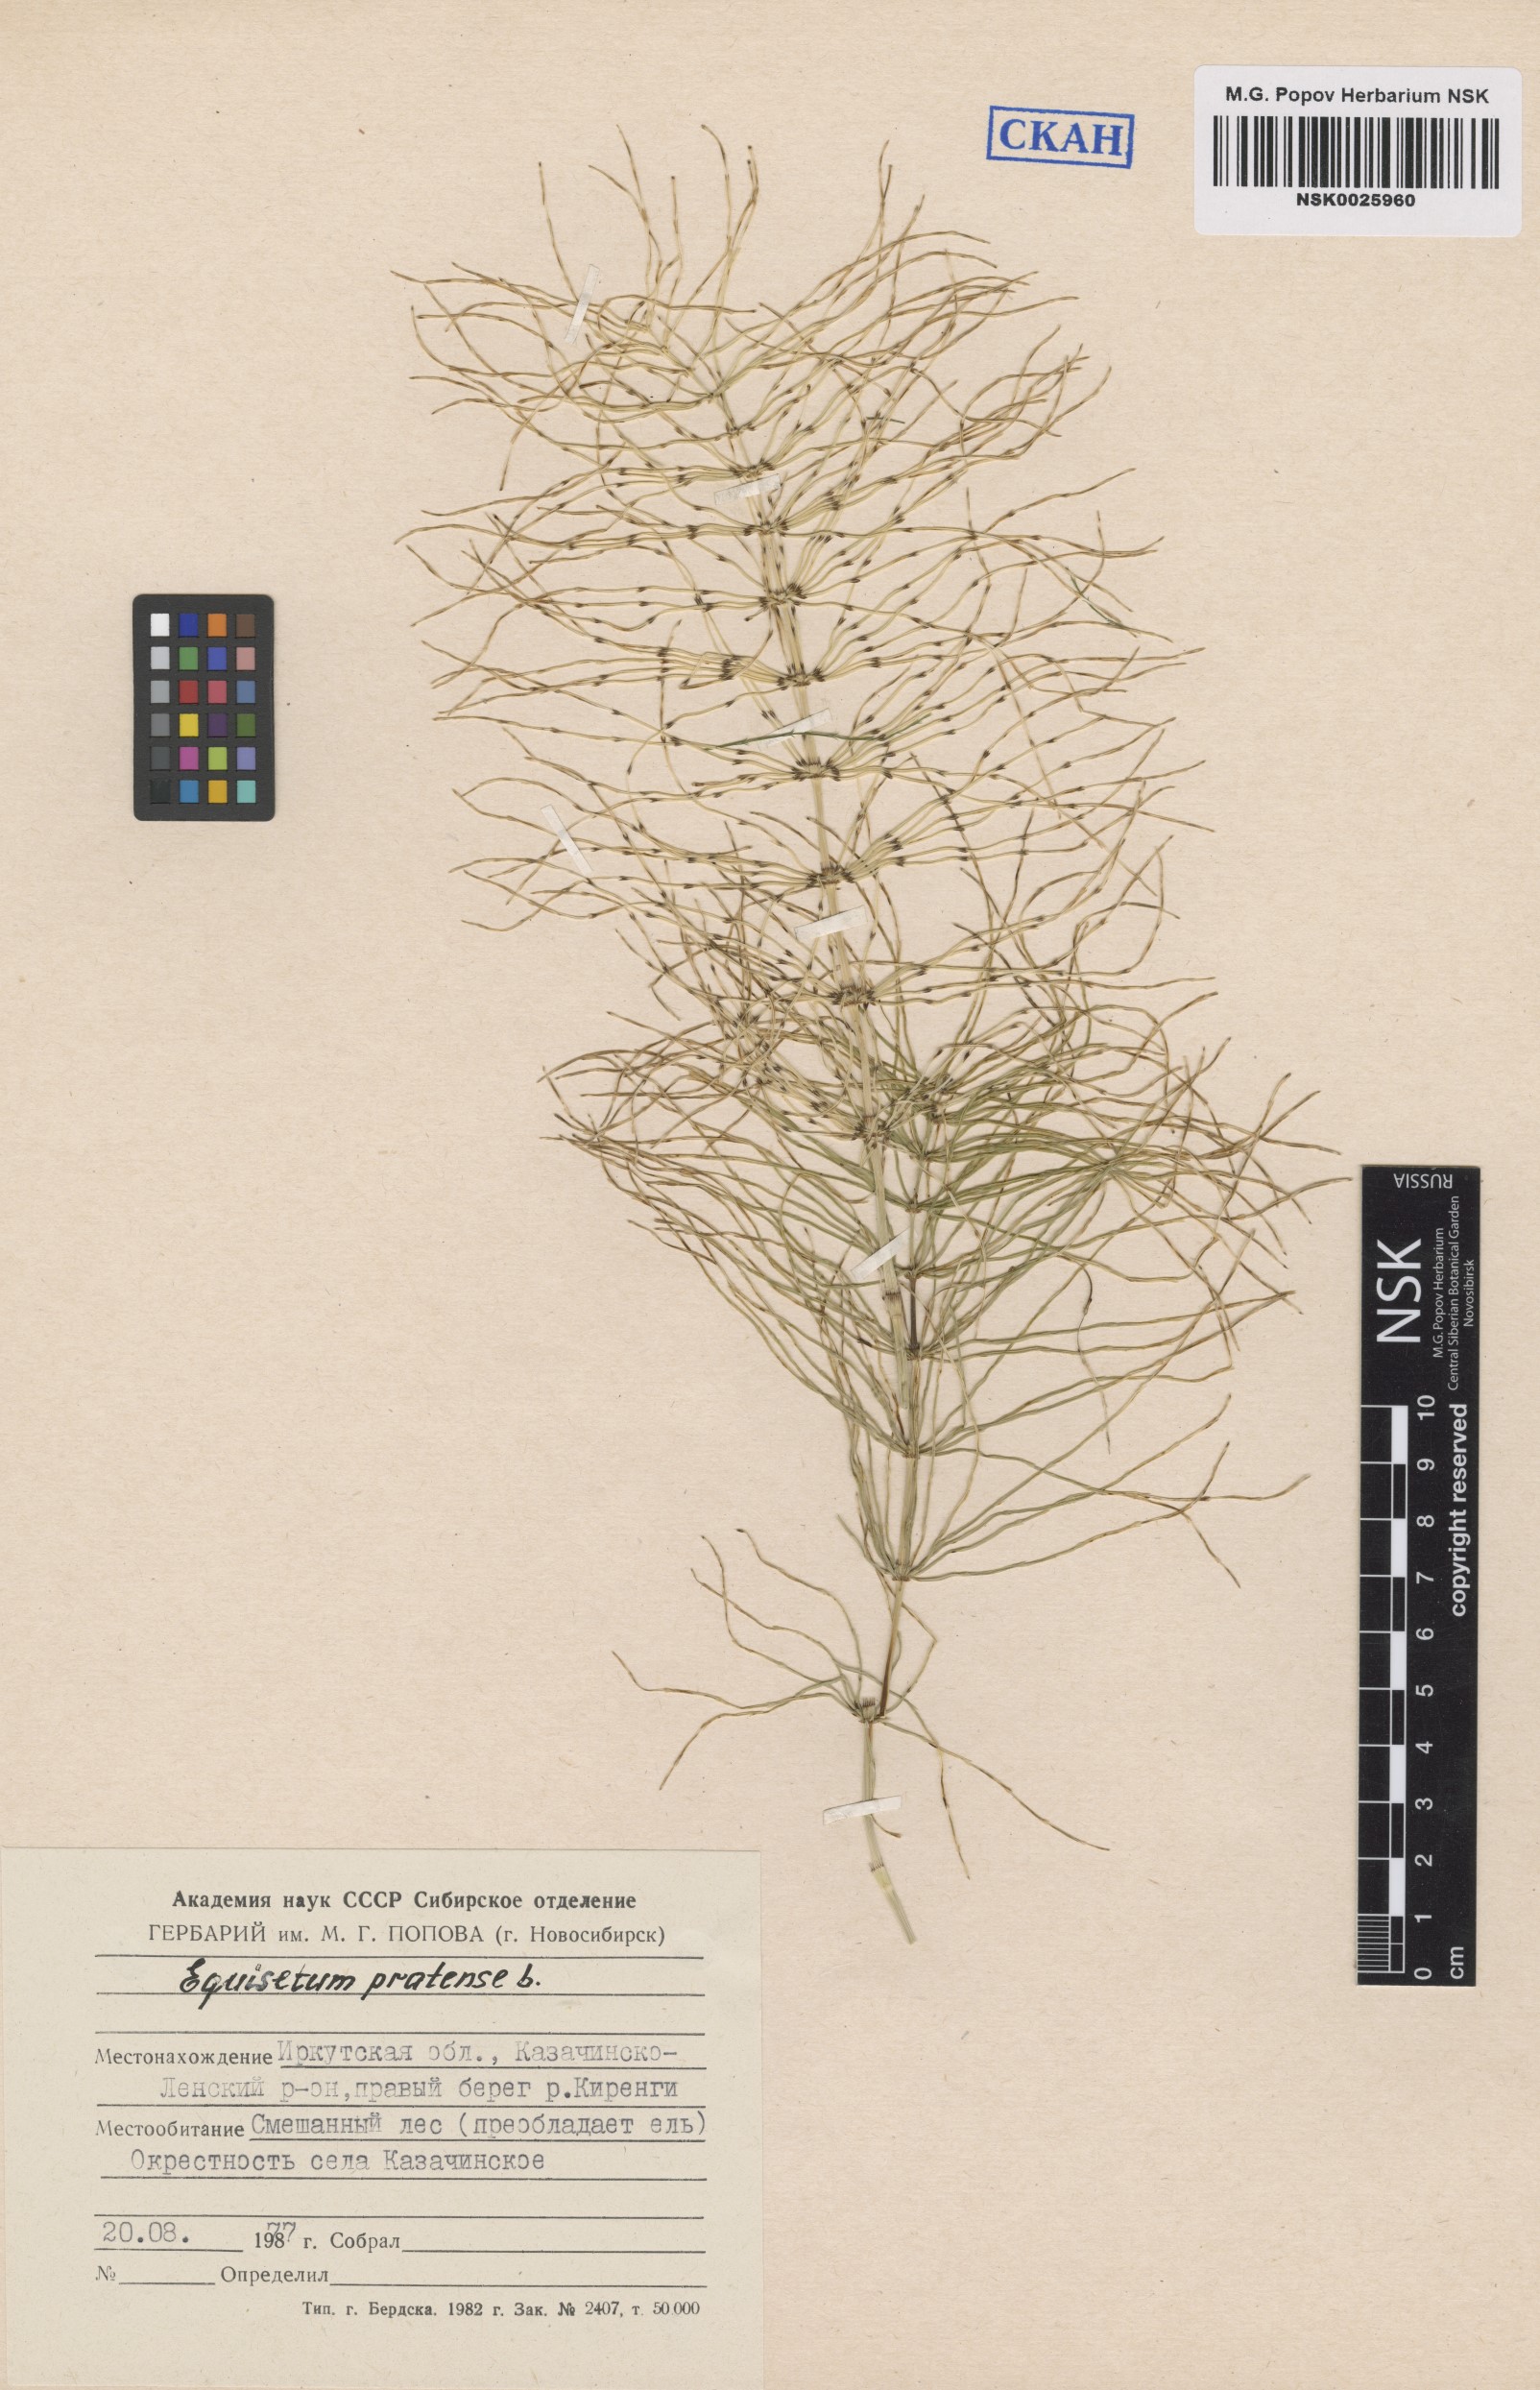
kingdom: Plantae
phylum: Tracheophyta
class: Polypodiopsida
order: Equisetales
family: Equisetaceae
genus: Equisetum
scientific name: Equisetum pratense
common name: Meadow horsetail
